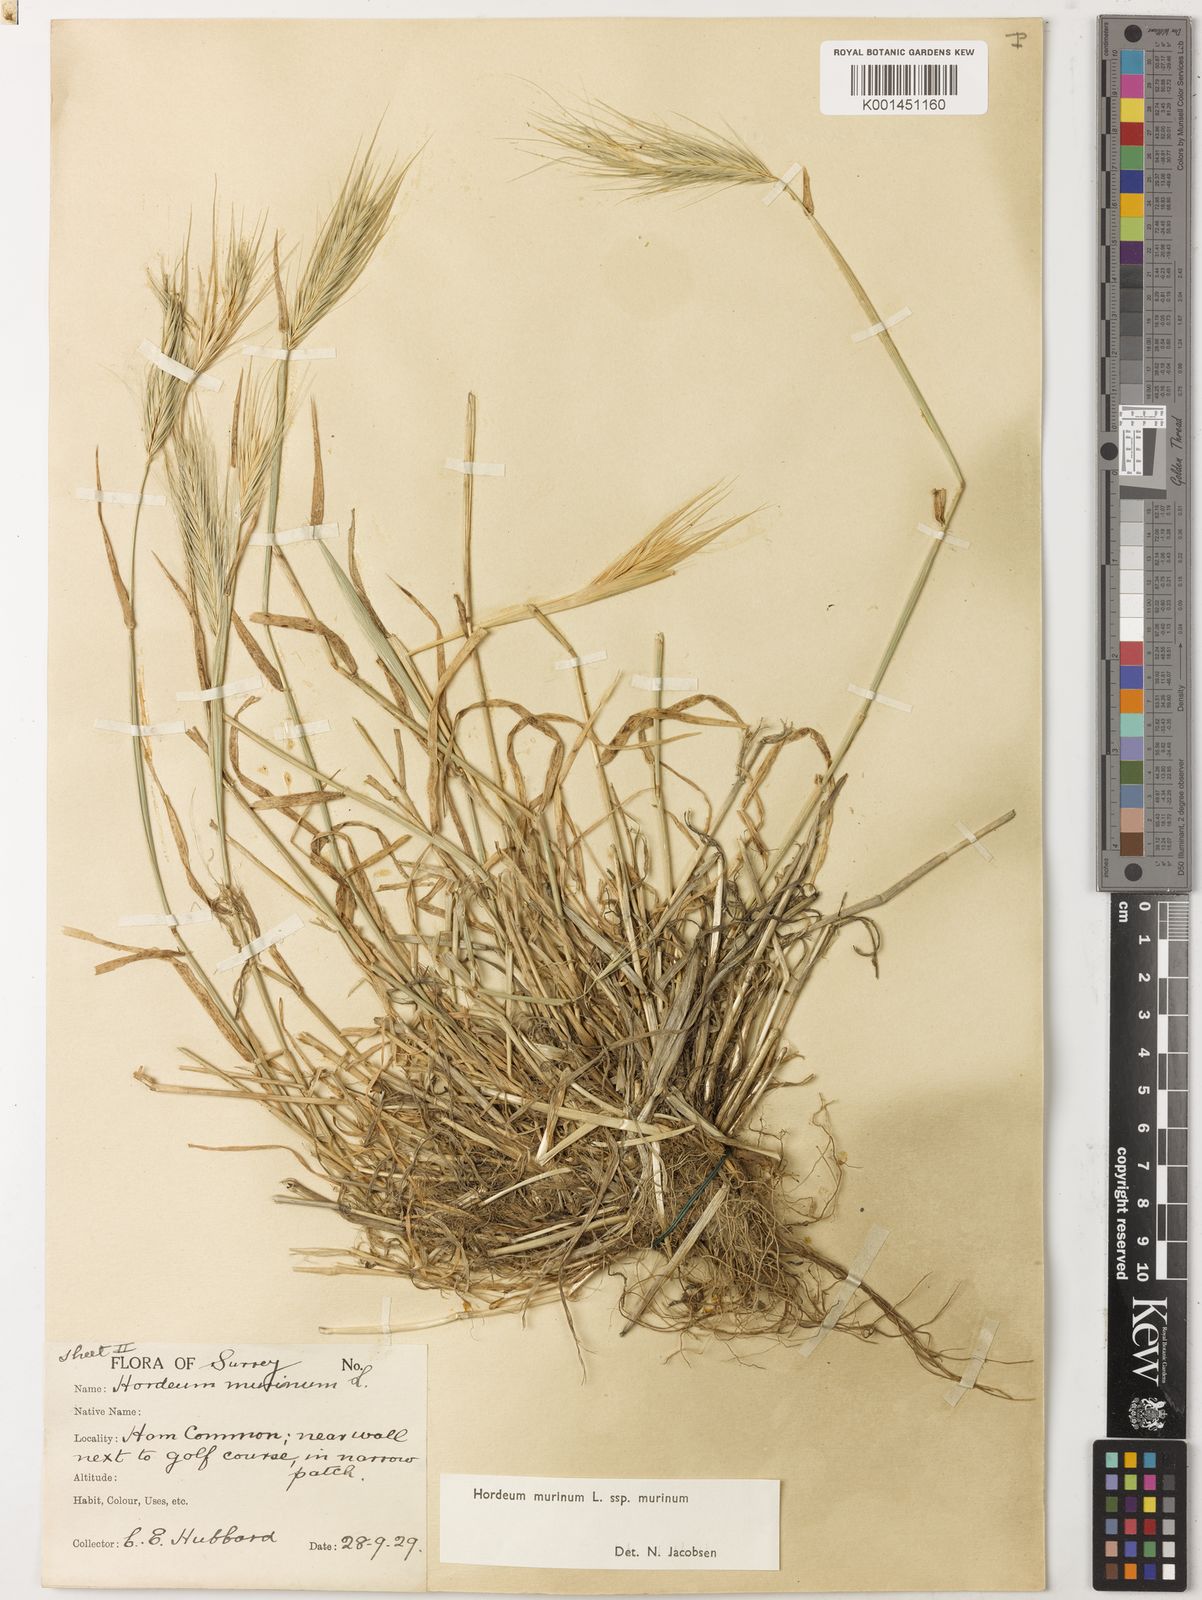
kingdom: Plantae
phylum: Tracheophyta
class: Liliopsida
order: Poales
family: Poaceae
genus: Hordeum
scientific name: Hordeum murinum
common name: Wall barley
